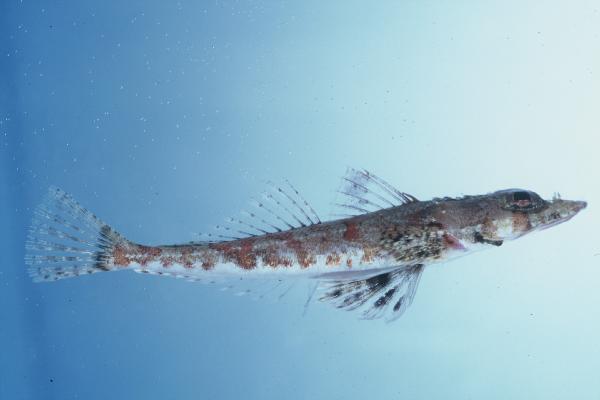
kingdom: Animalia
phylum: Chordata
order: Scorpaeniformes
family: Platycephalidae
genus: Thysanophrys
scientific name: Thysanophrys chiltonae
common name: Longsnout flathead
